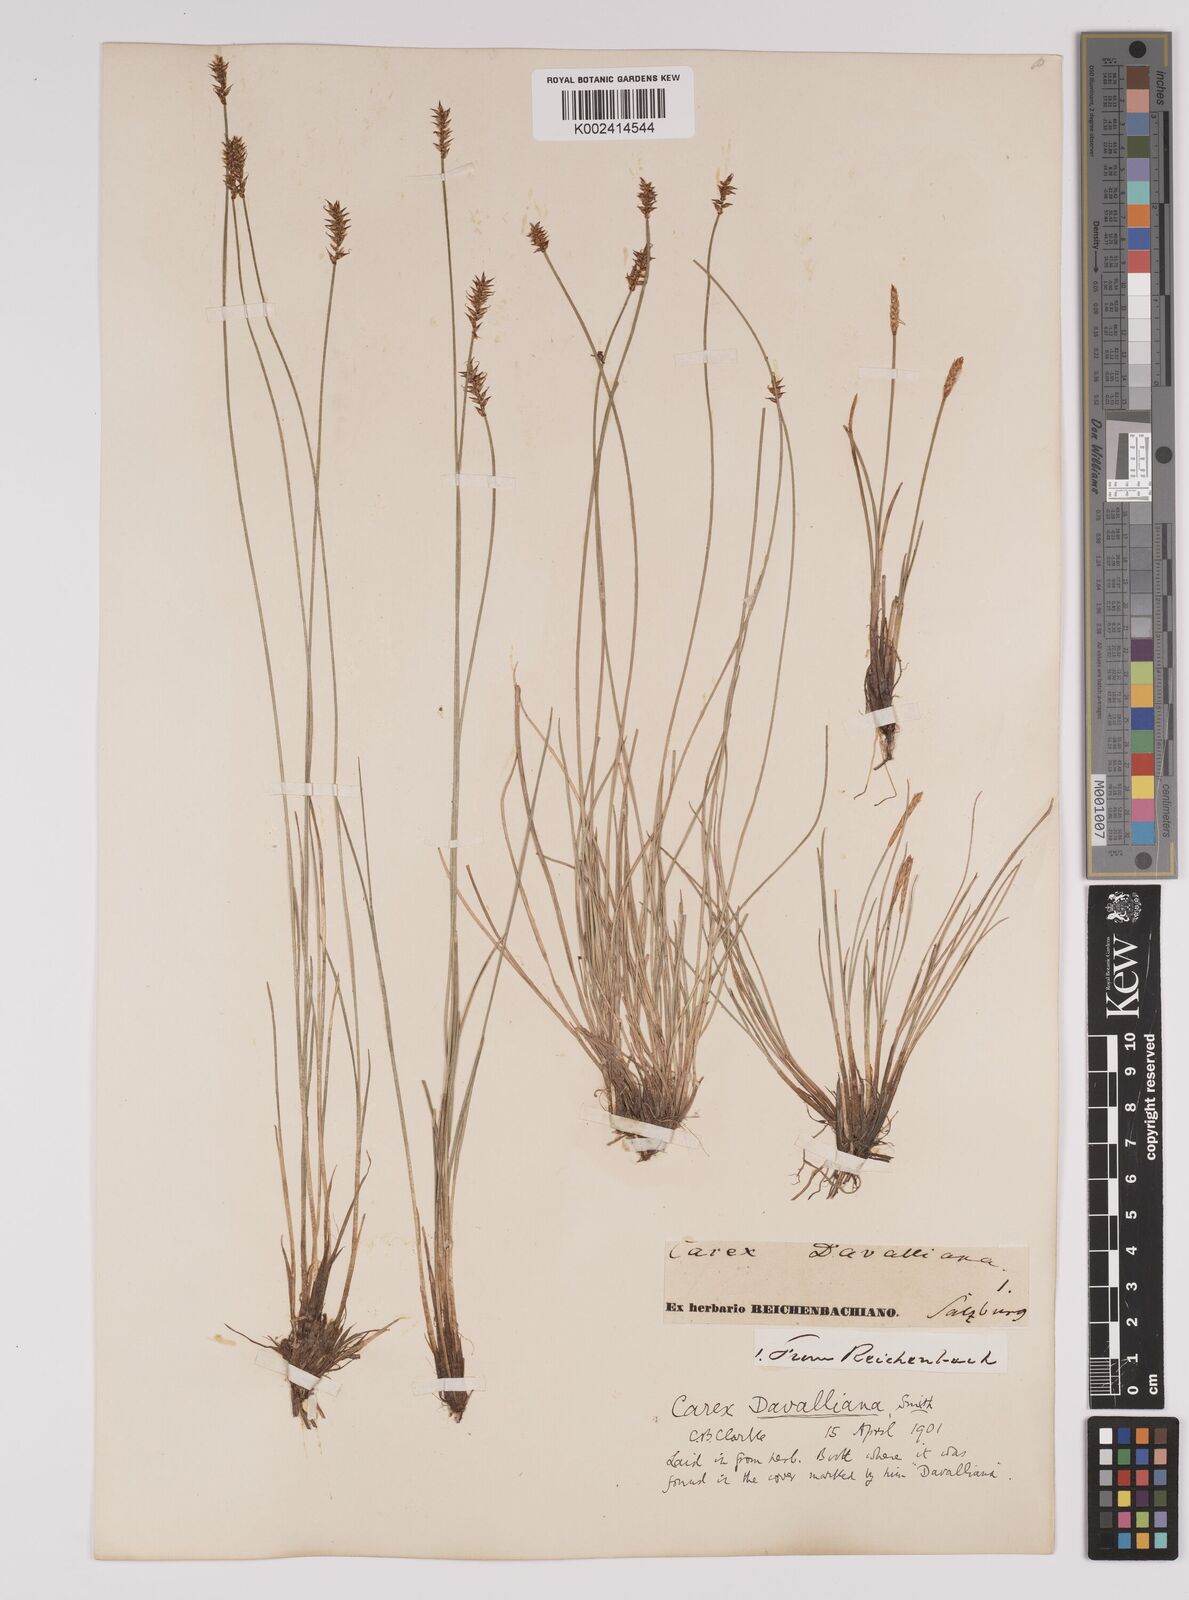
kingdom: Plantae
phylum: Tracheophyta
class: Liliopsida
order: Poales
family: Cyperaceae
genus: Carex
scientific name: Carex davalliana
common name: Davall's sedge
